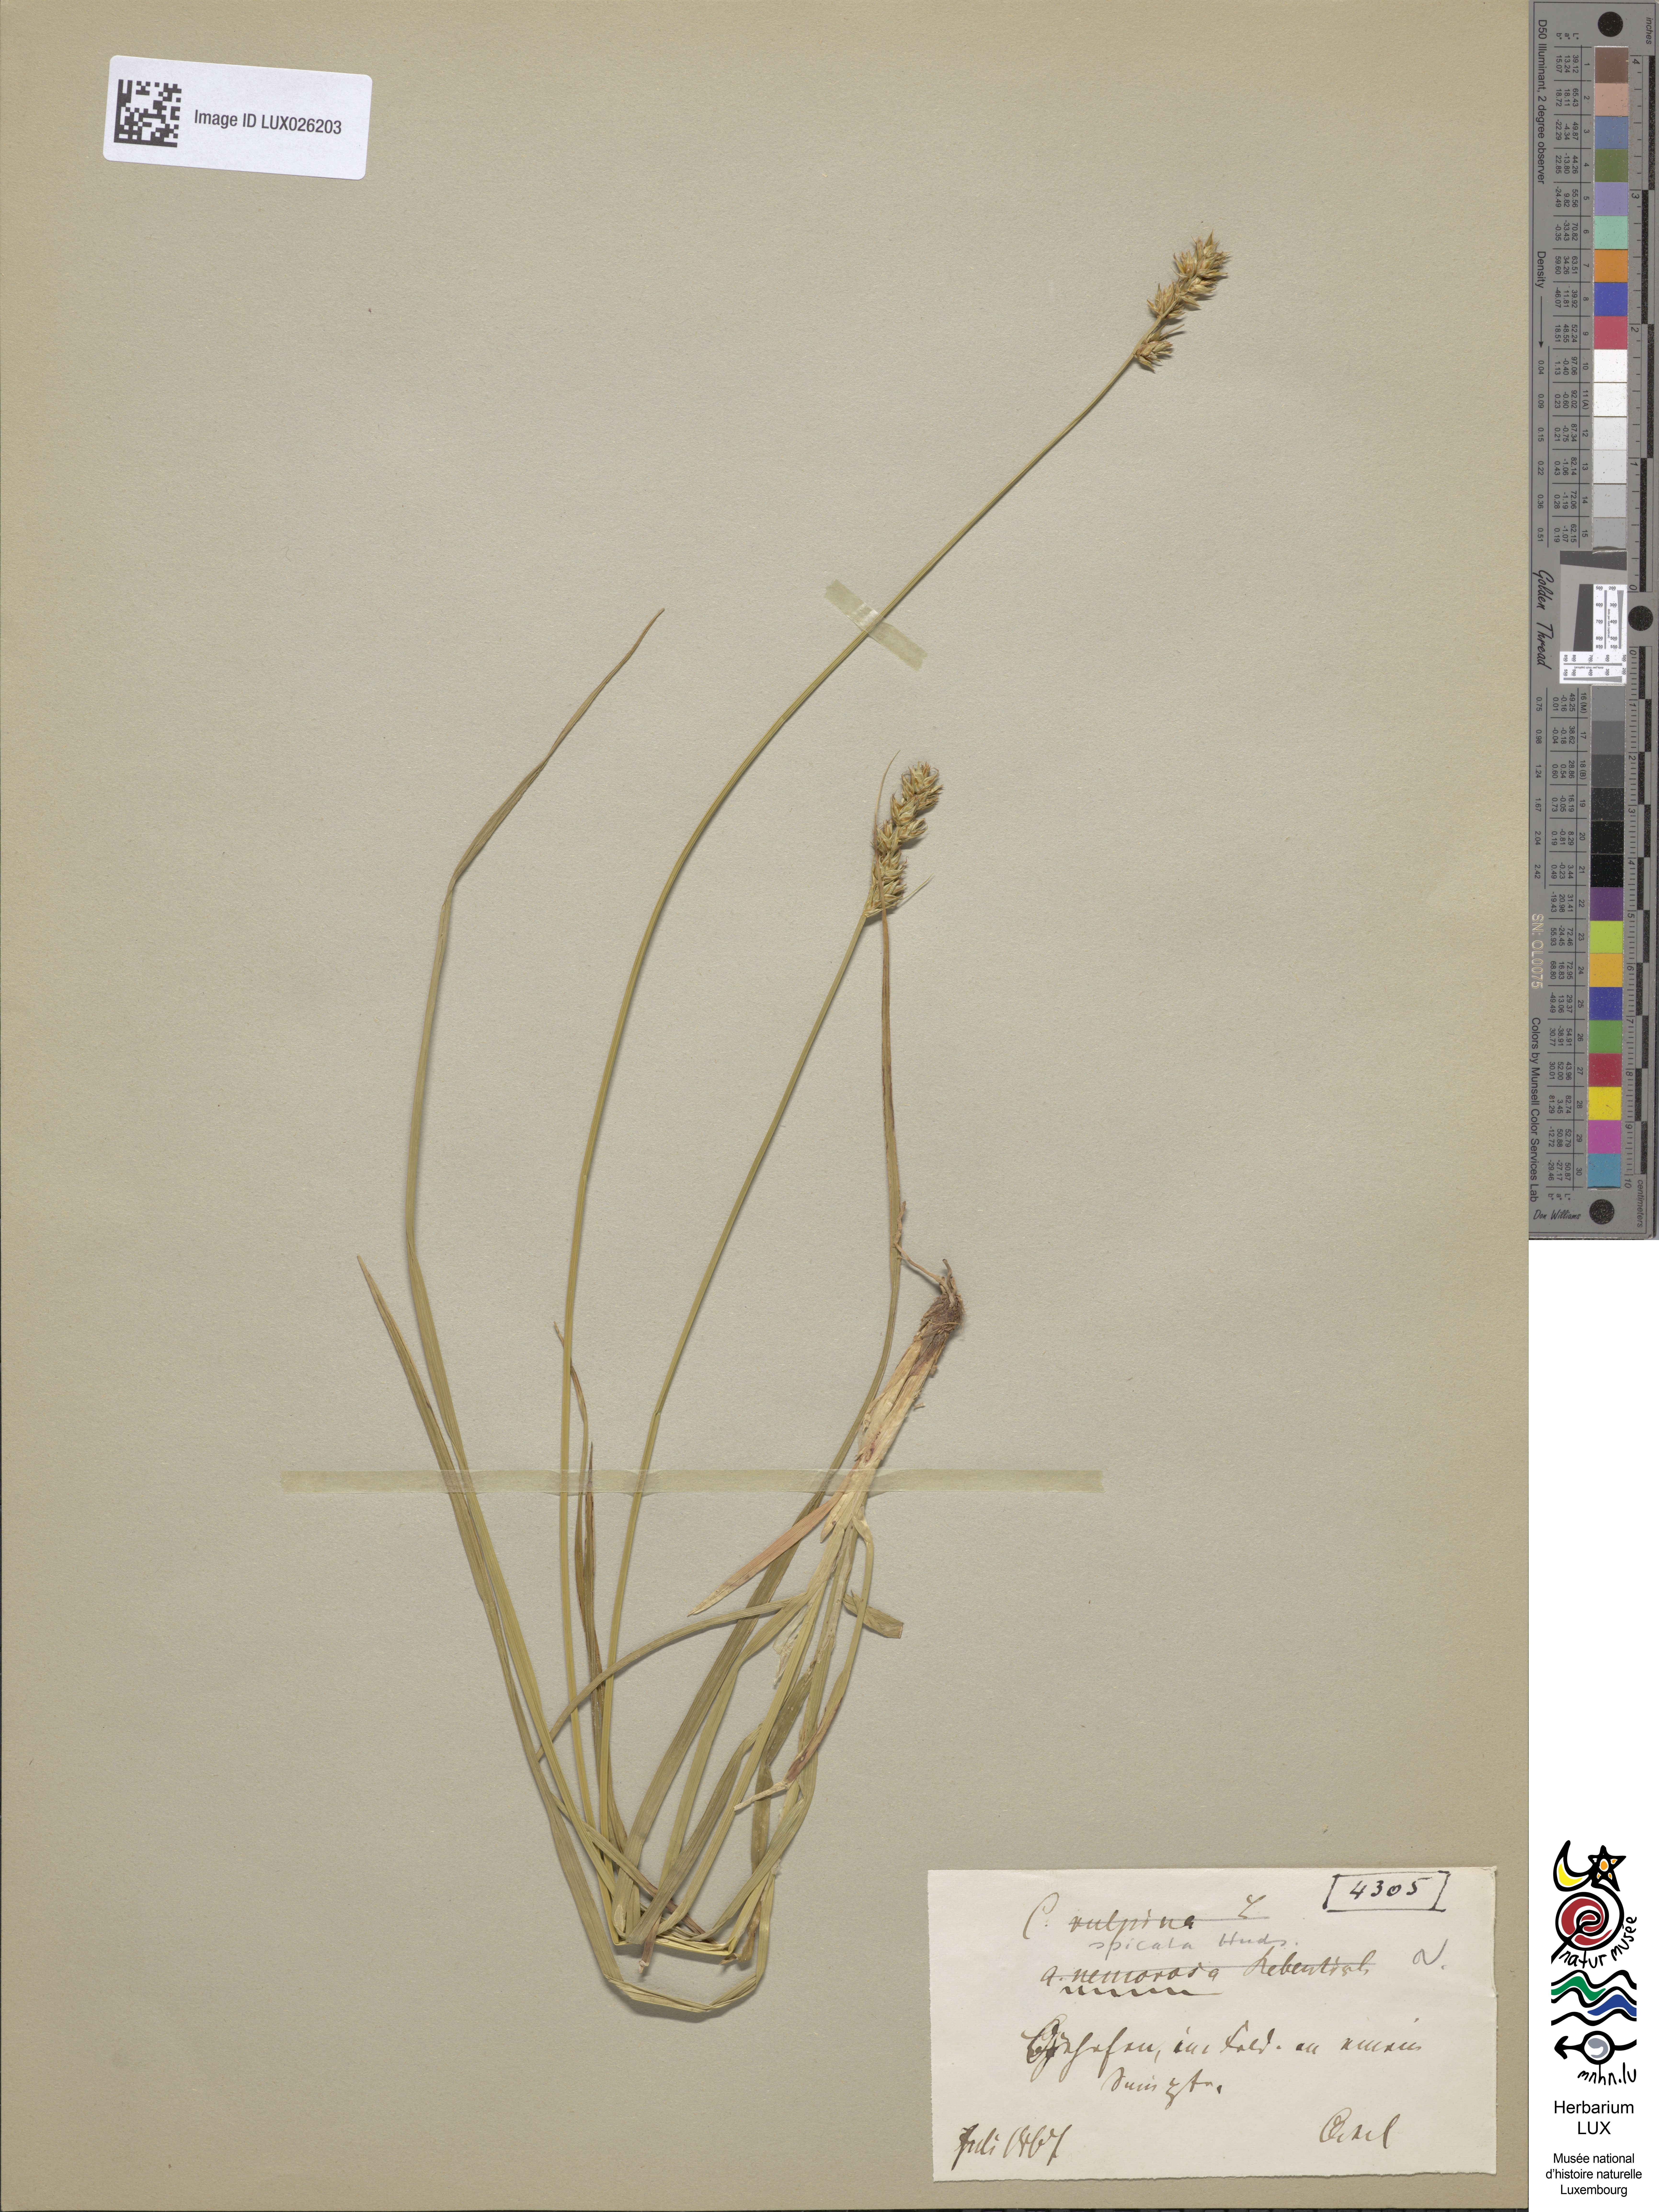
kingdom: Plantae
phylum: Tracheophyta
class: Liliopsida
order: Poales
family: Cyperaceae
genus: Carex
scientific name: Carex
